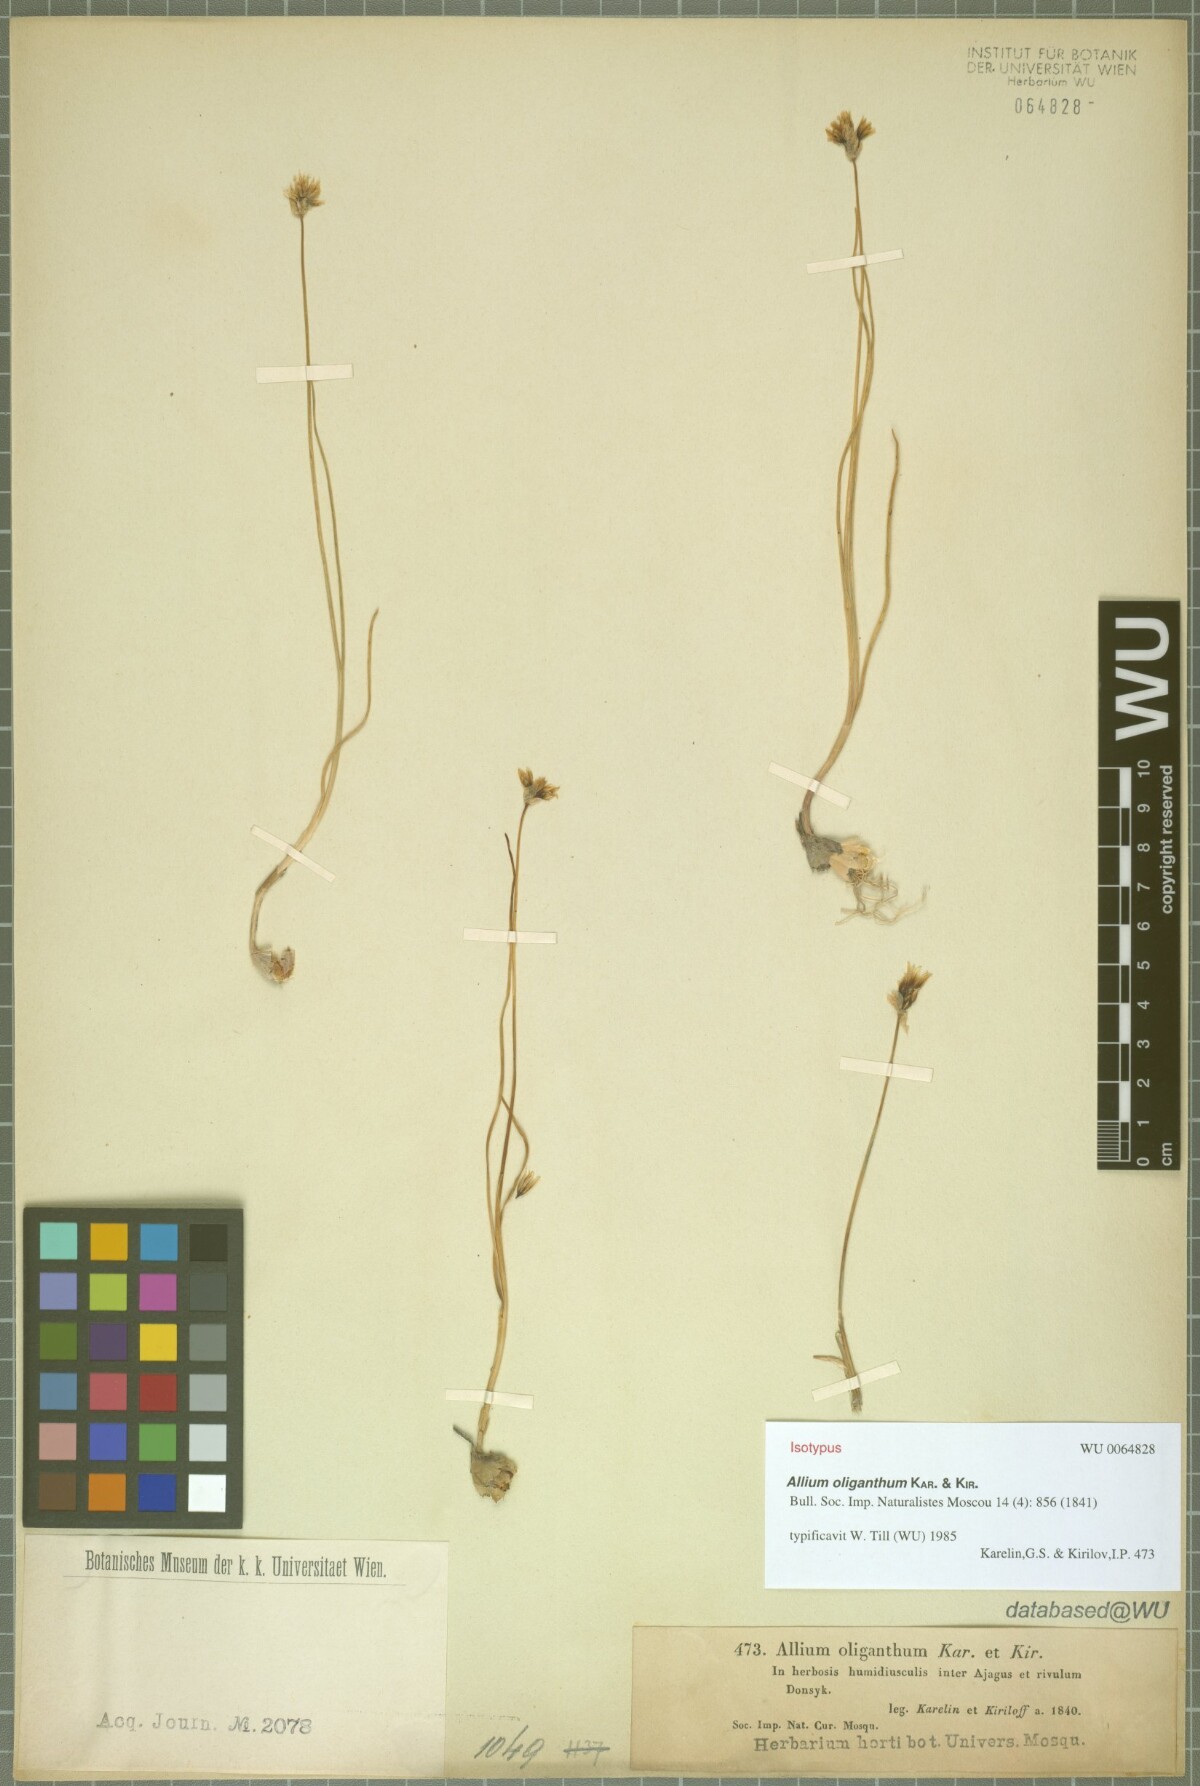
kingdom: Plantae
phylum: Tracheophyta
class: Liliopsida
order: Asparagales
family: Amaryllidaceae
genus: Allium
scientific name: Allium oliganthum
